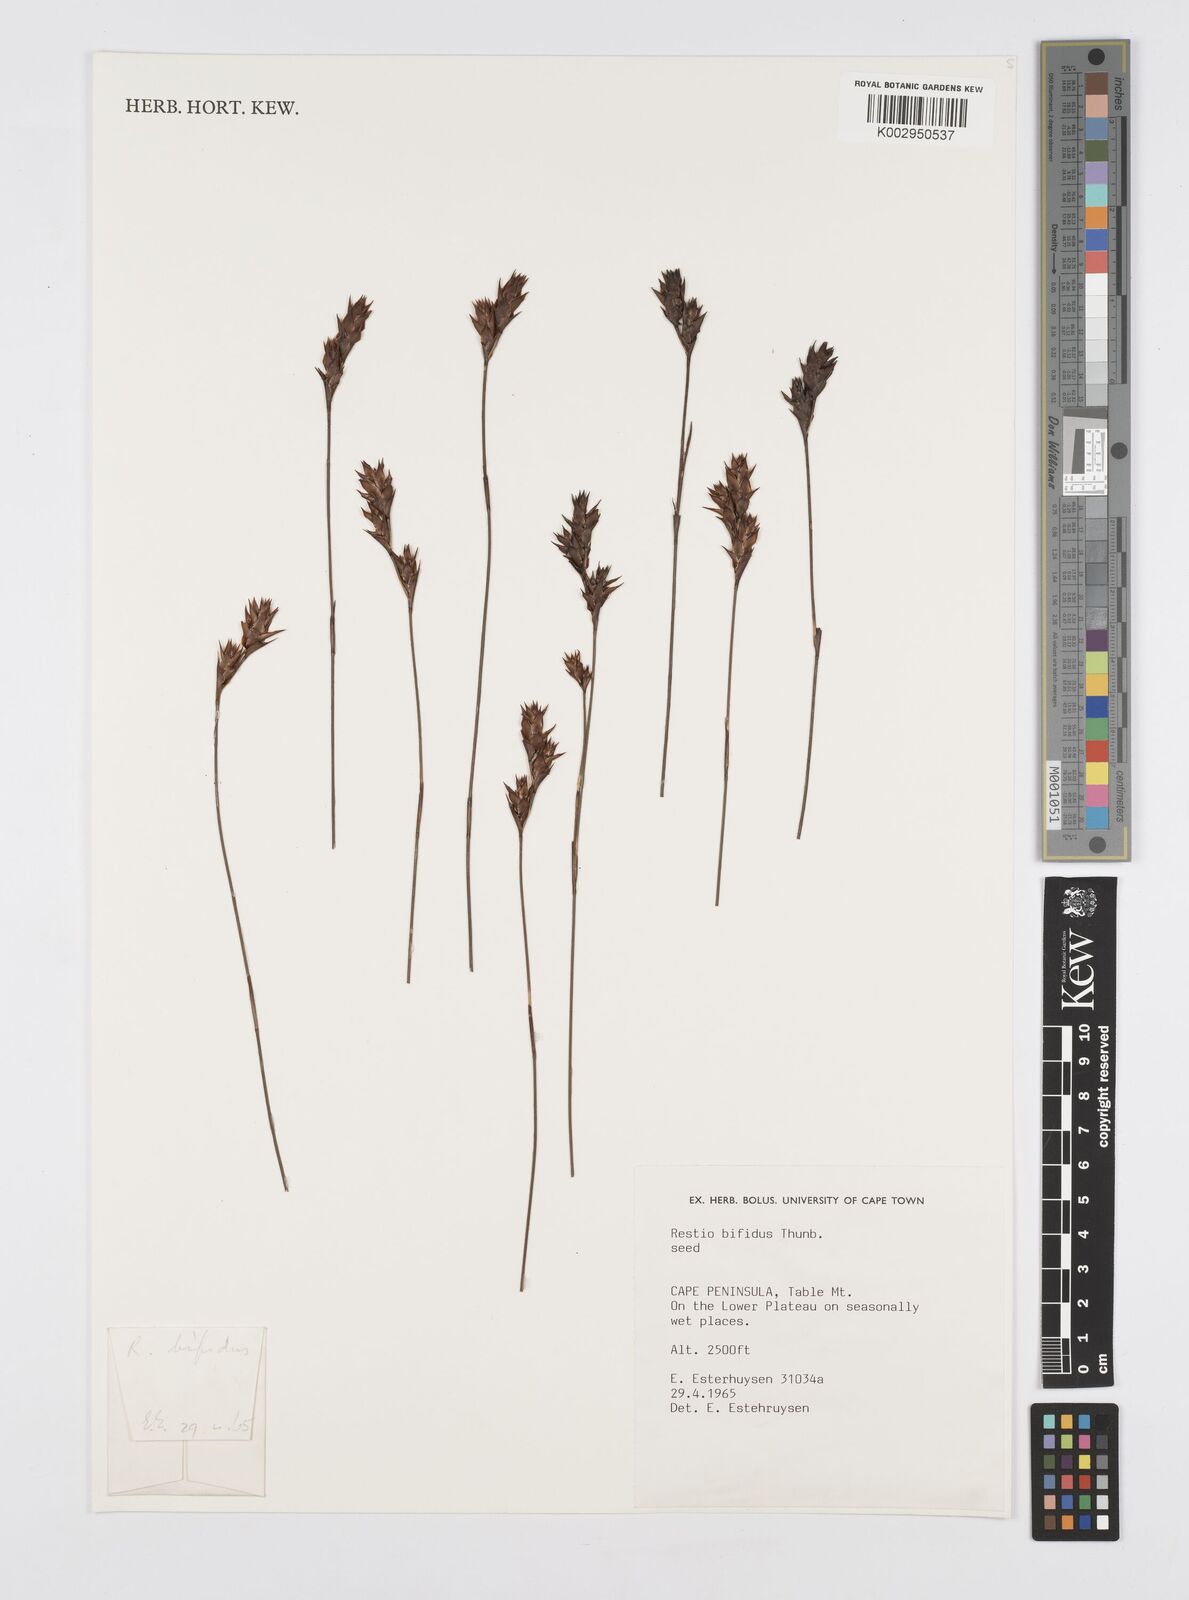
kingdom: Plantae
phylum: Tracheophyta
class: Liliopsida
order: Poales
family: Restionaceae
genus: Restio
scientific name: Restio bifidus
